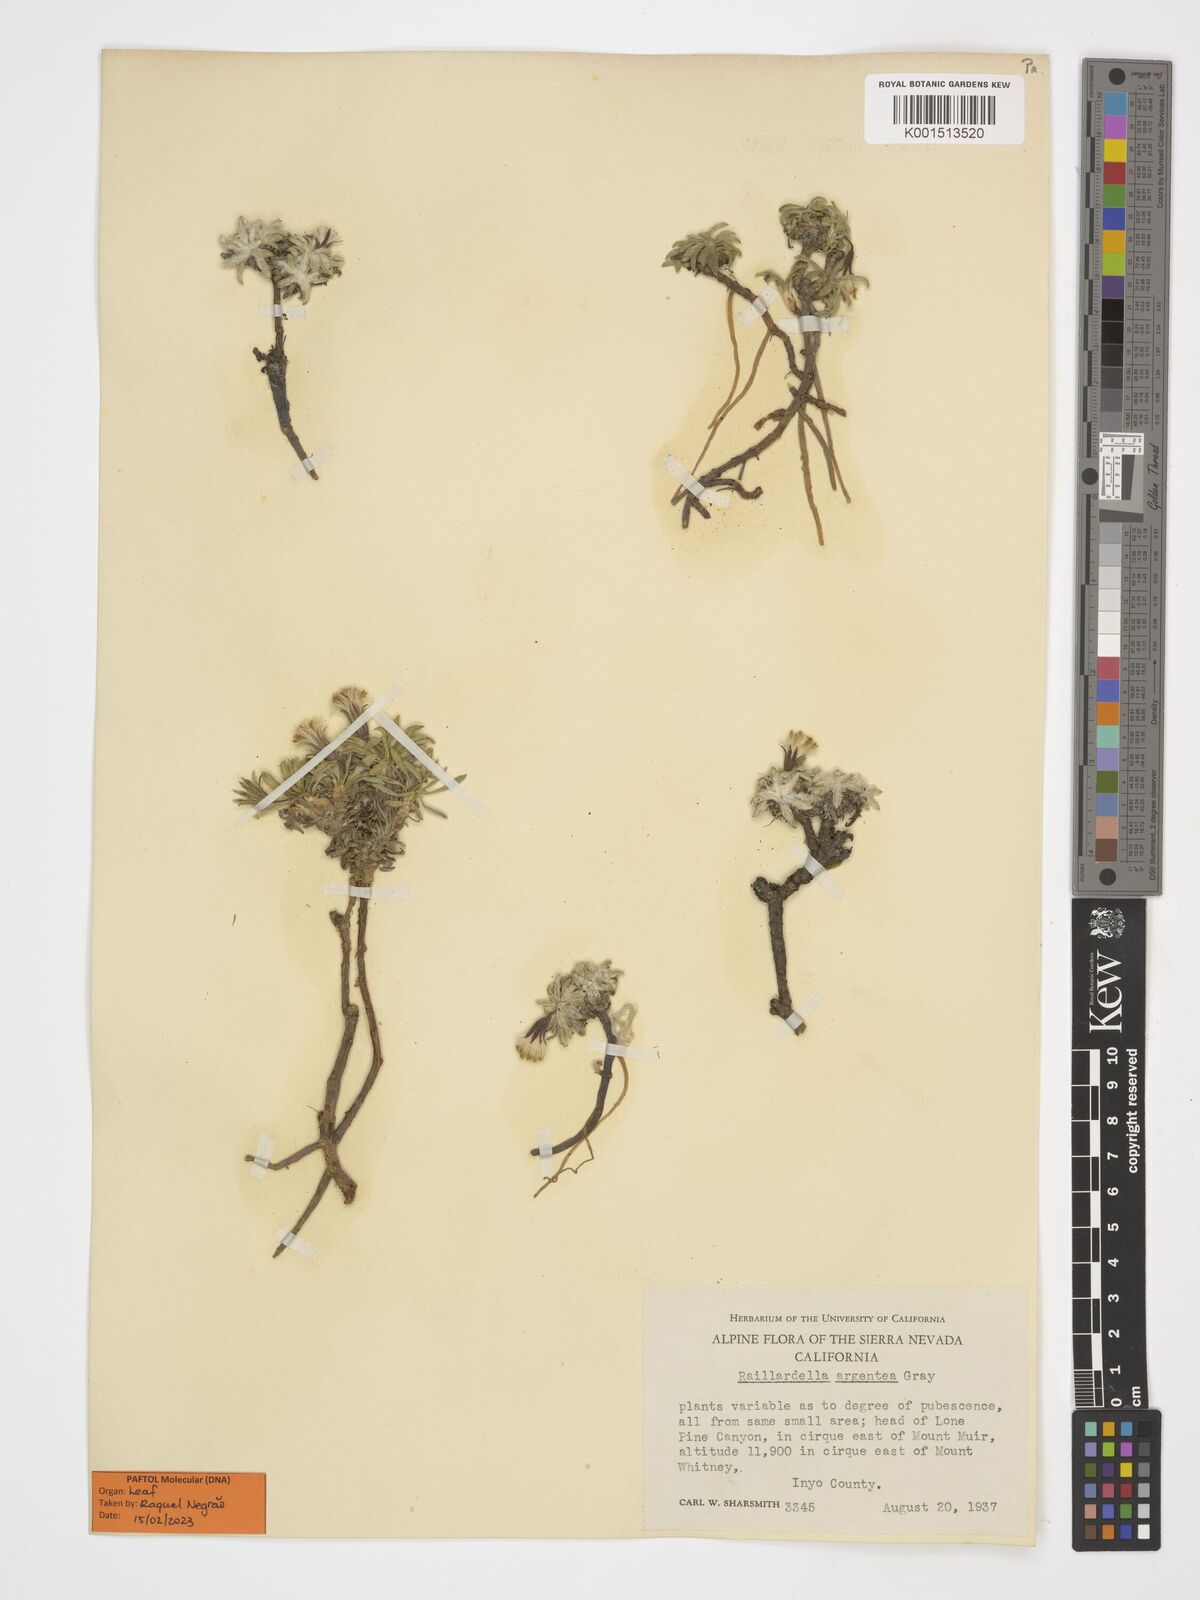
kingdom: Plantae
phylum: Tracheophyta
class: Magnoliopsida
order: Asterales
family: Asteraceae
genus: Raillardella
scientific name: Raillardella argentea
